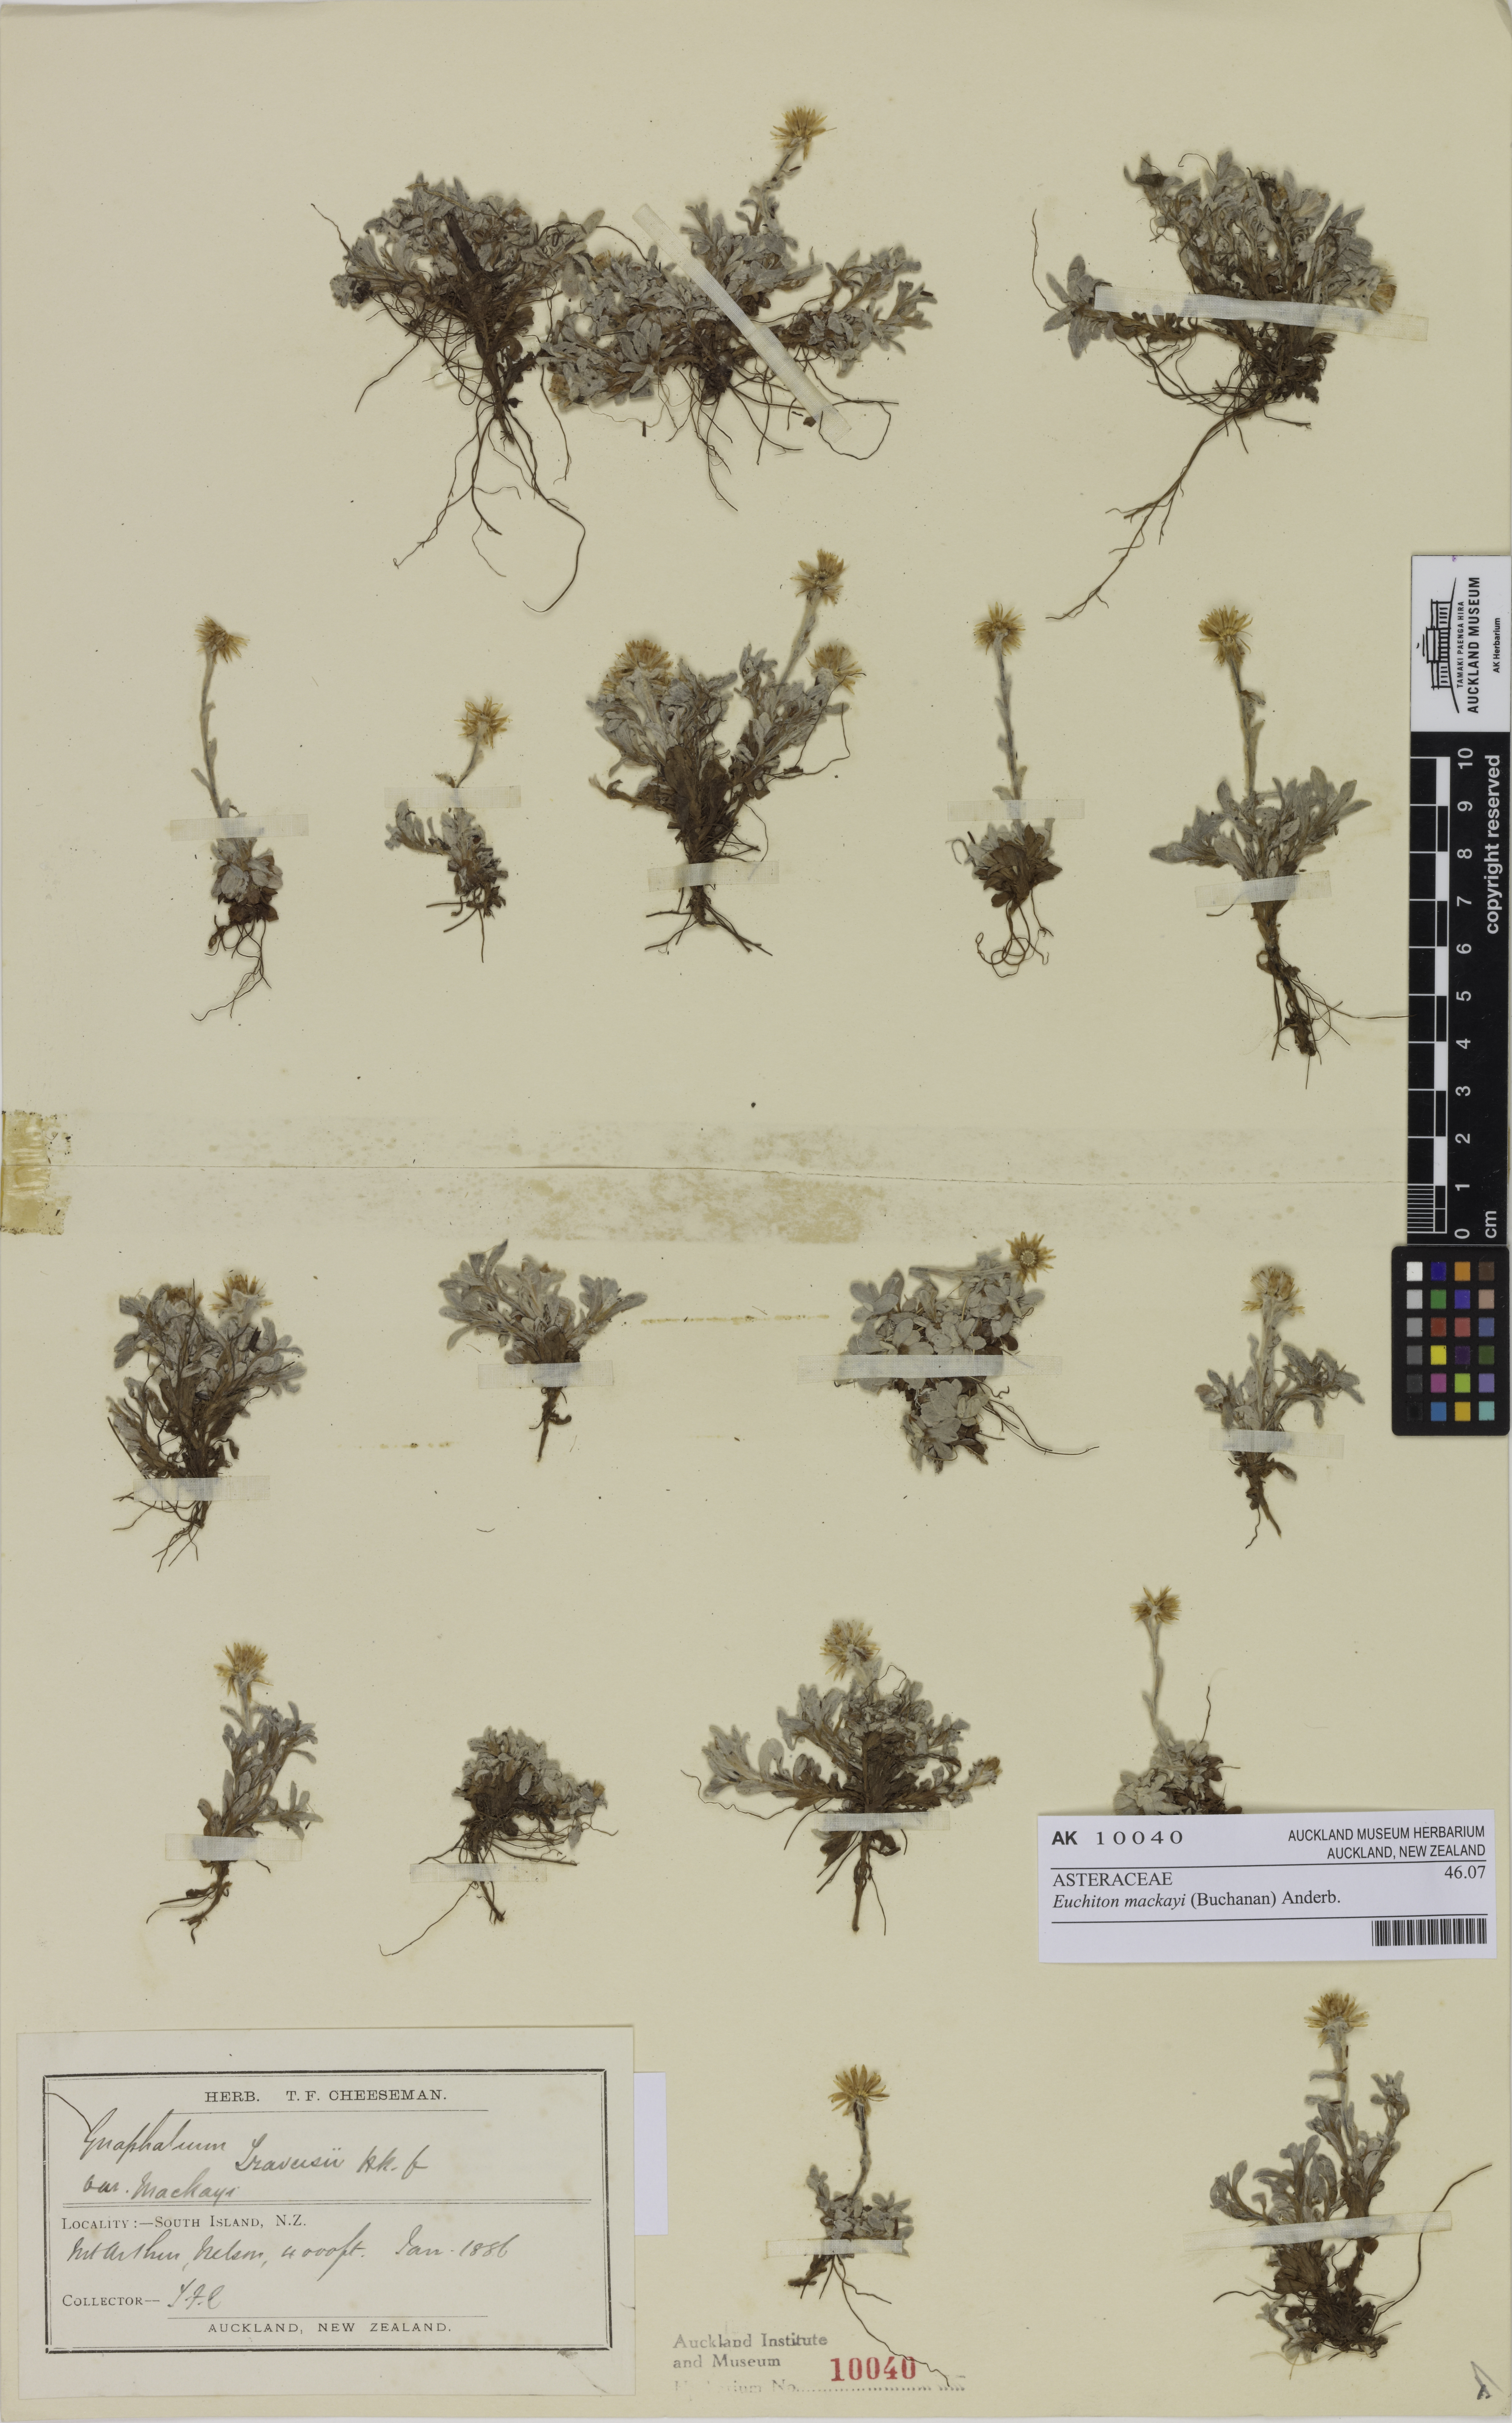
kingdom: Plantae
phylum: Tracheophyta
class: Magnoliopsida
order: Asterales
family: Asteraceae
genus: Argyrotegium
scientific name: Argyrotegium mackayi
